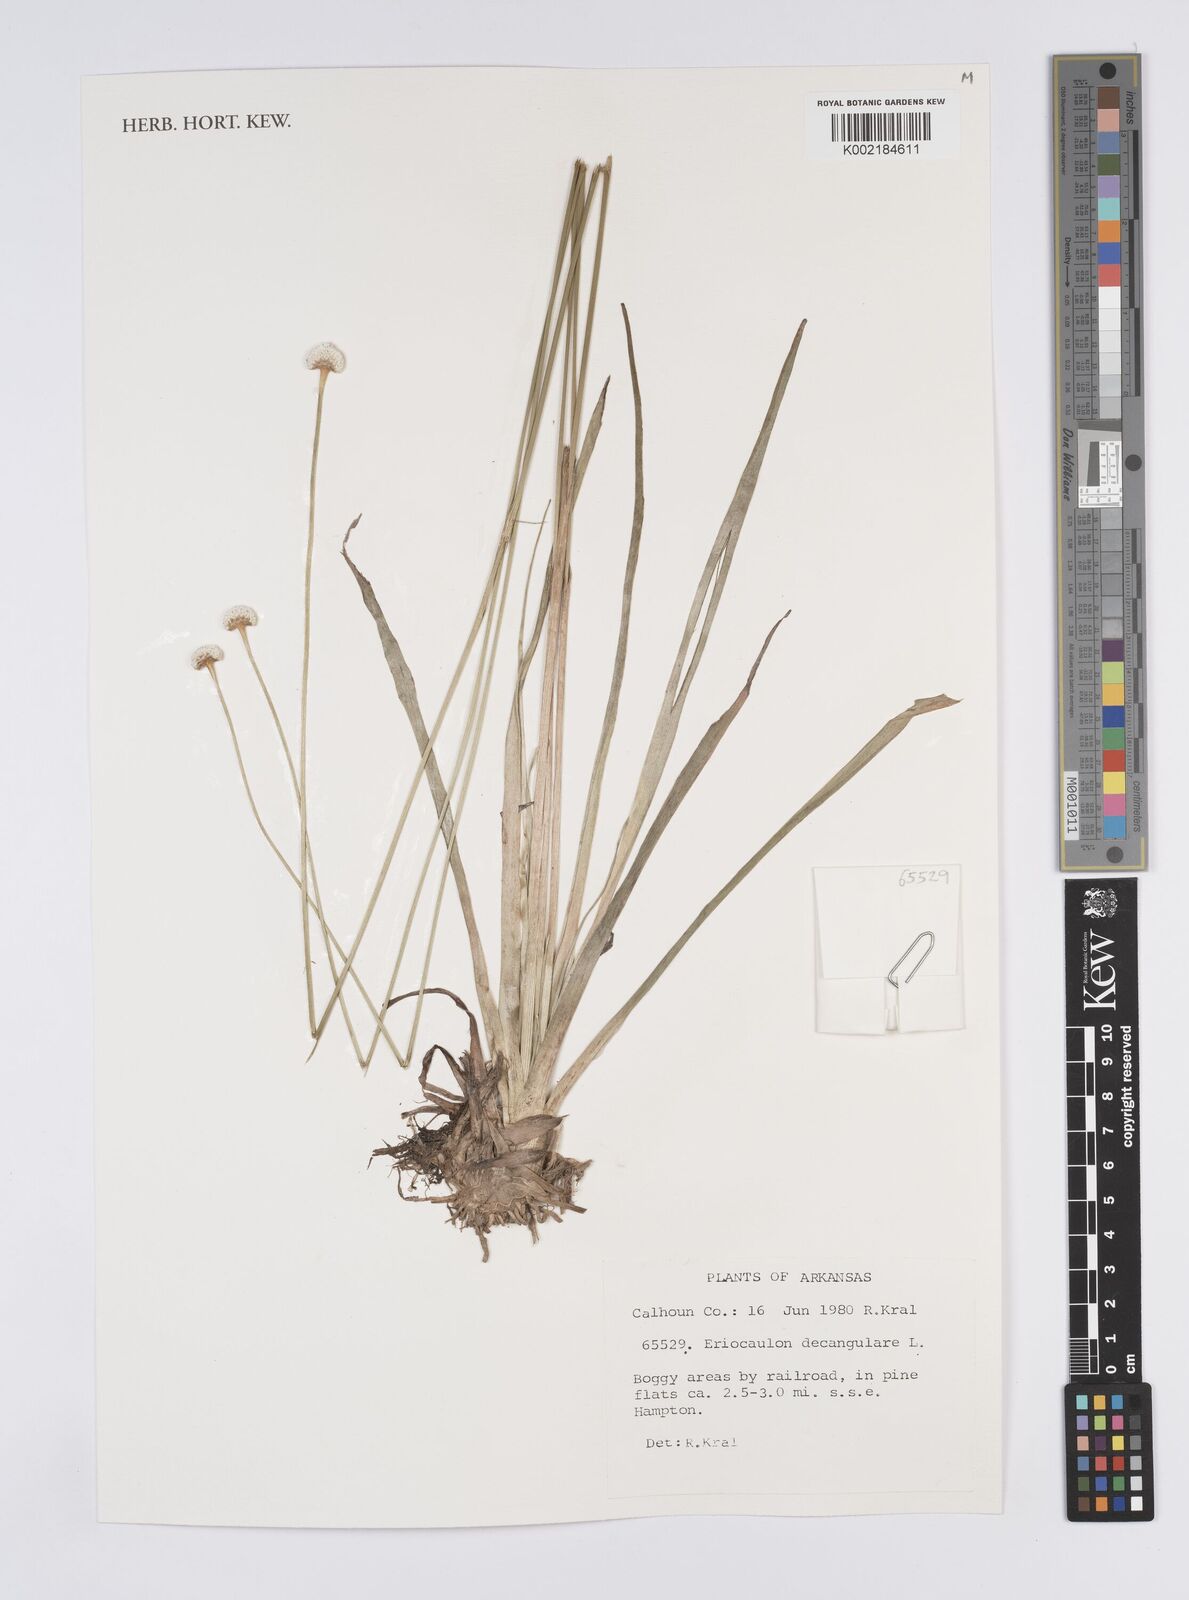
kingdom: Plantae
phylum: Tracheophyta
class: Liliopsida
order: Poales
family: Eriocaulaceae
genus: Eriocaulon
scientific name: Eriocaulon decangulare
